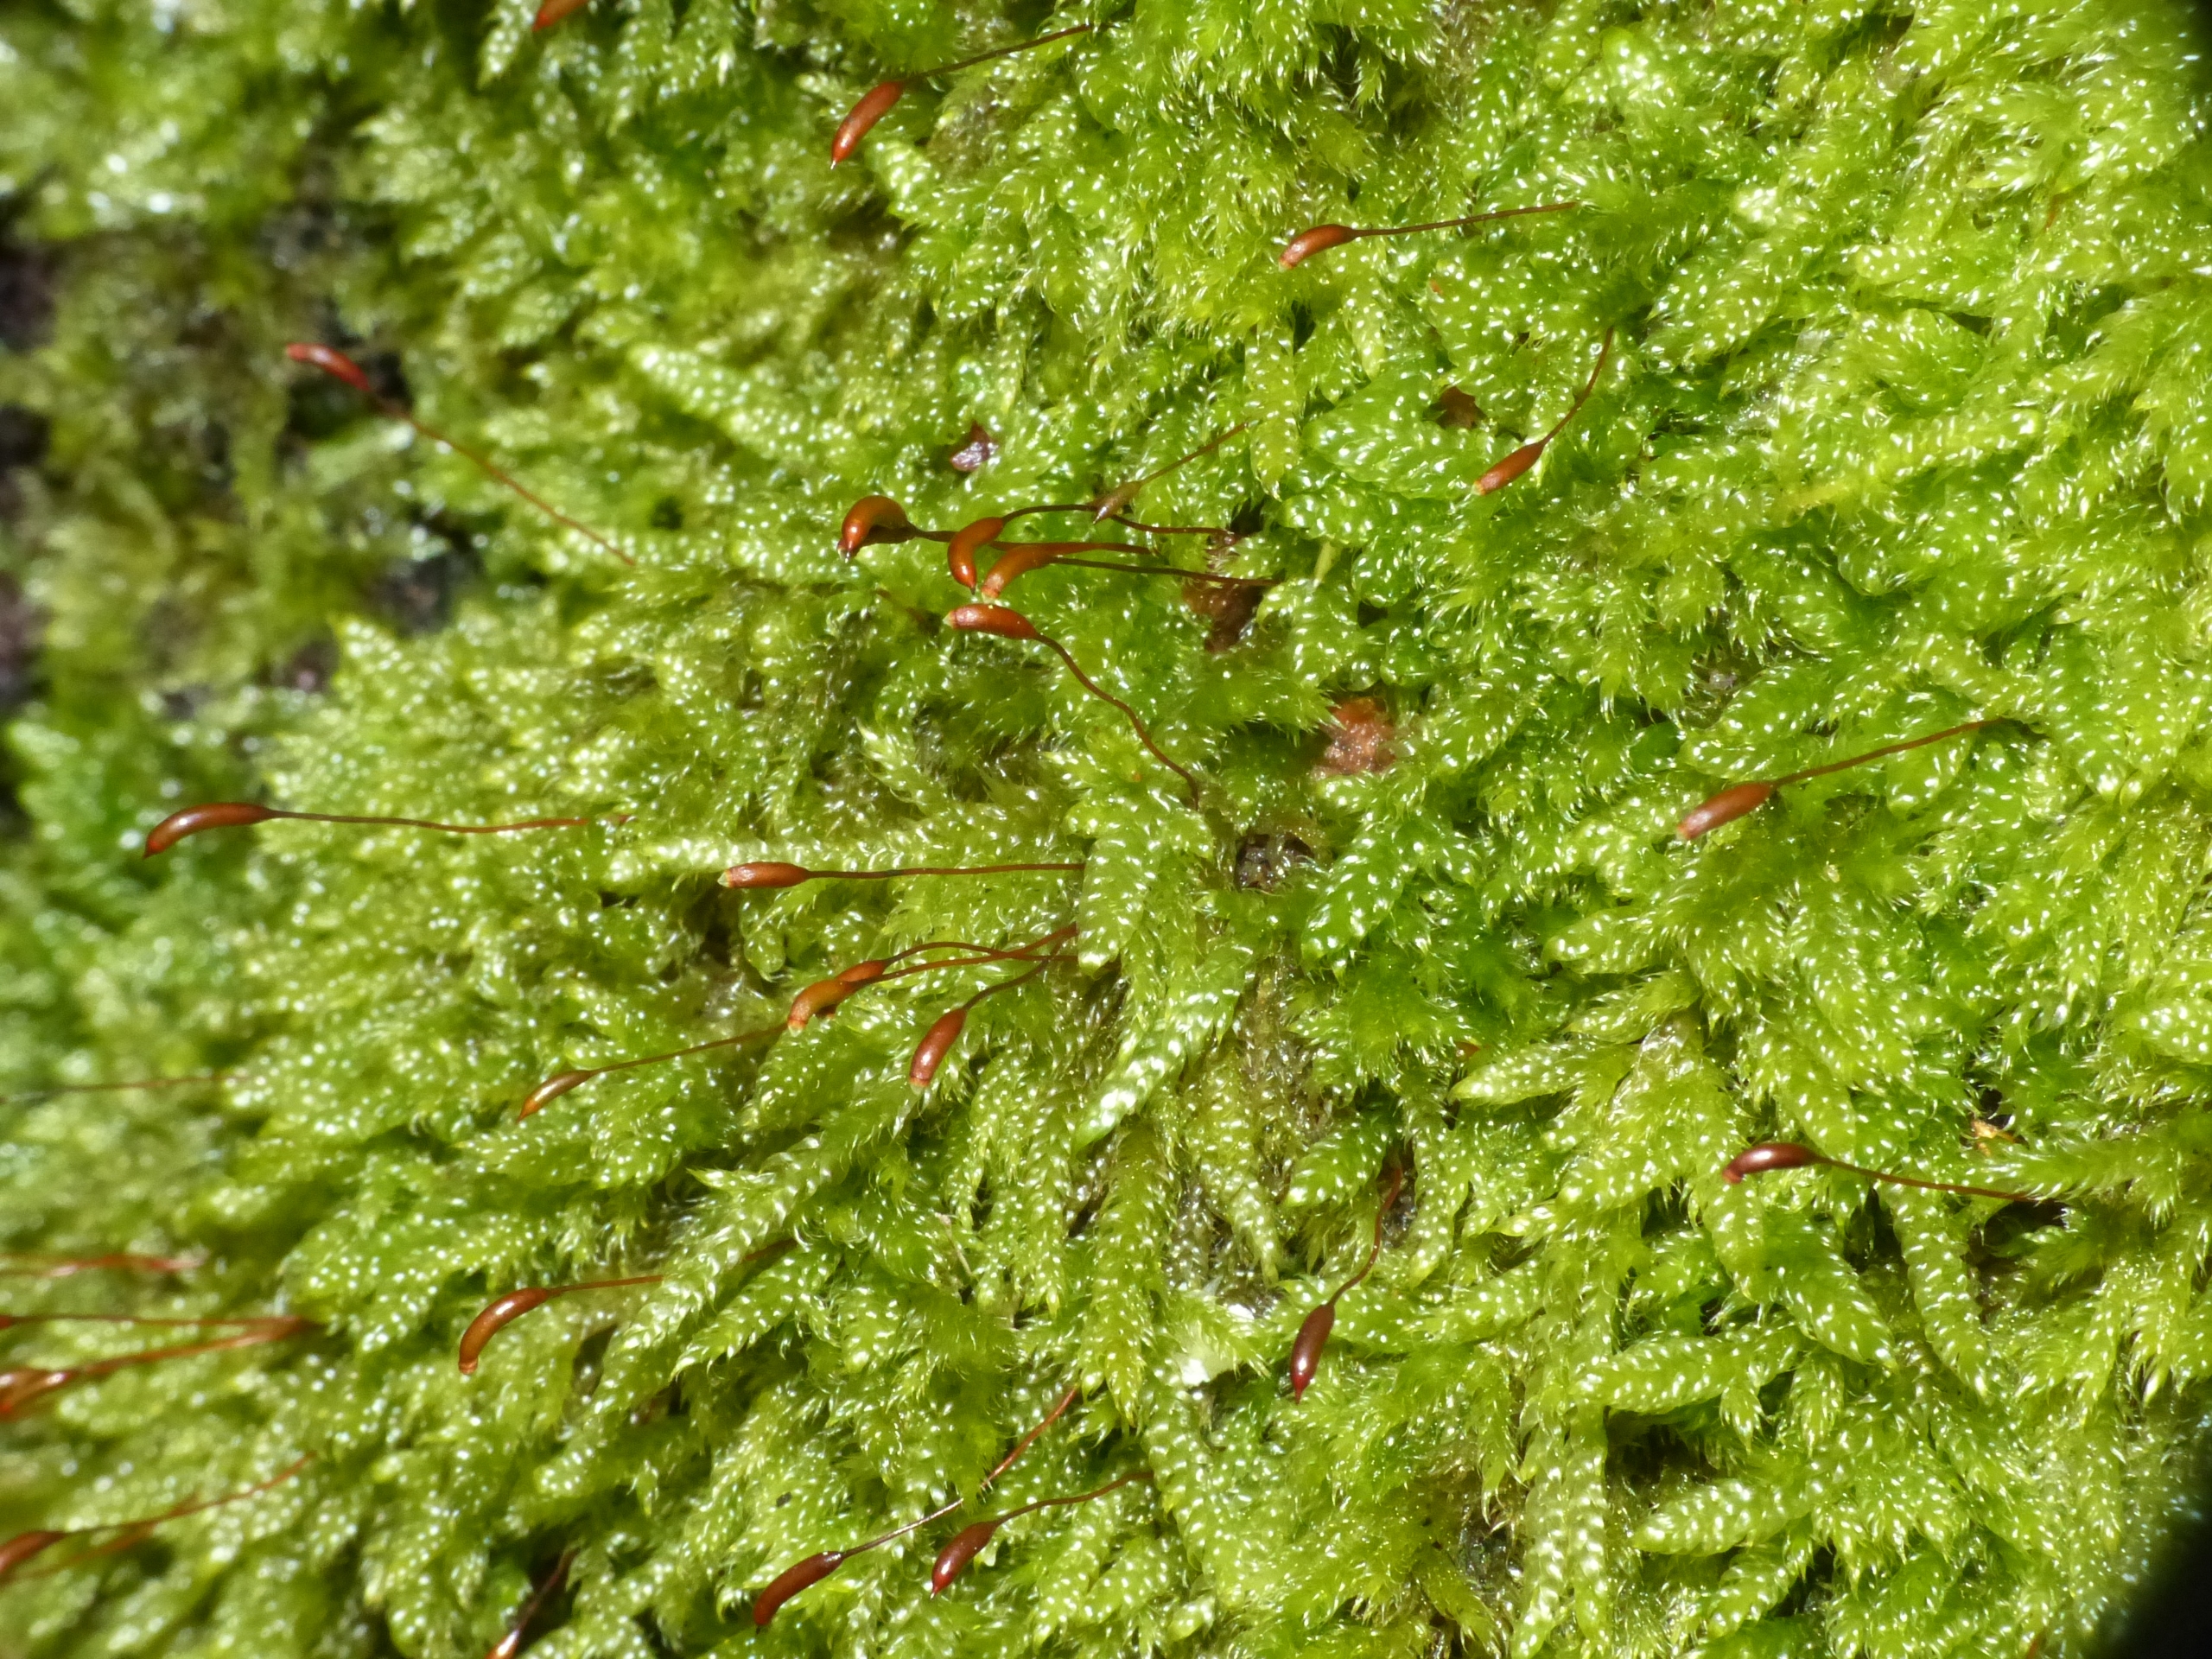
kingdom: Plantae
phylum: Bryophyta
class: Bryopsida
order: Hypnales
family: Hypnaceae
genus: Hypnum
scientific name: Hypnum cupressiforme
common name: Almindelig cypresmos
